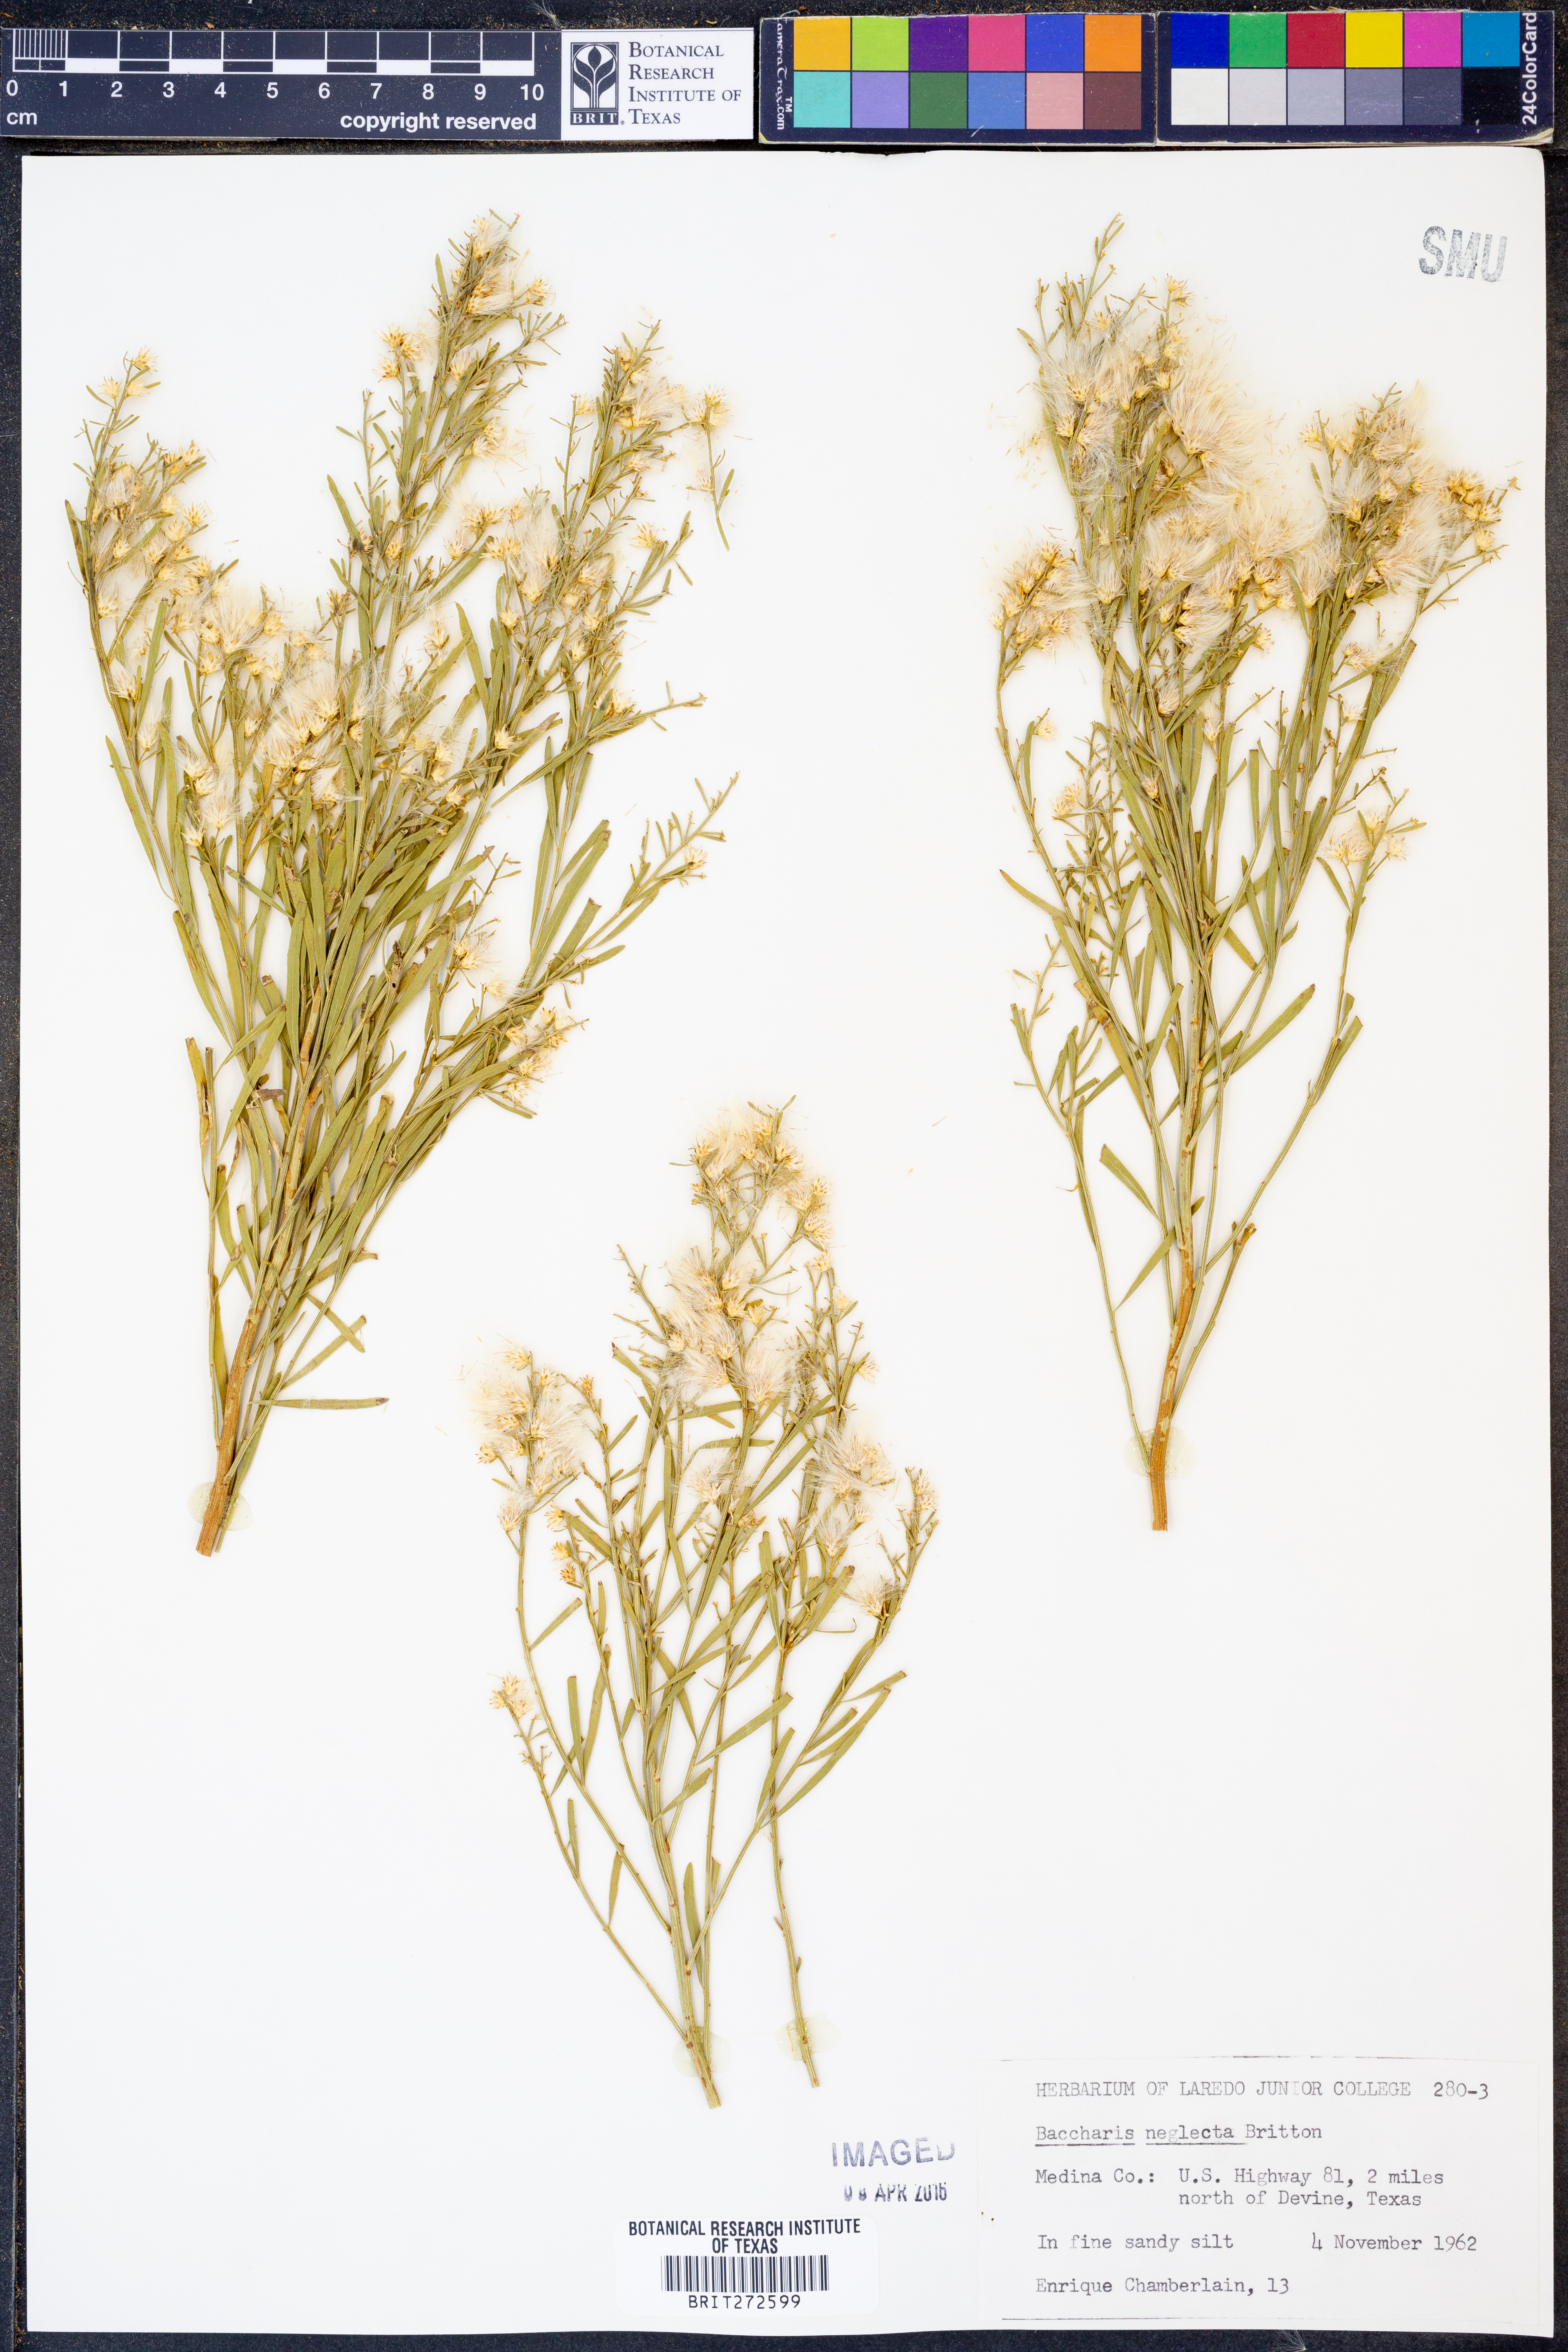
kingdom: Plantae
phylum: Tracheophyta
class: Magnoliopsida
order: Asterales
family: Asteraceae
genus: Baccharis
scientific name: Baccharis neglecta
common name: Roosevelt-weed
